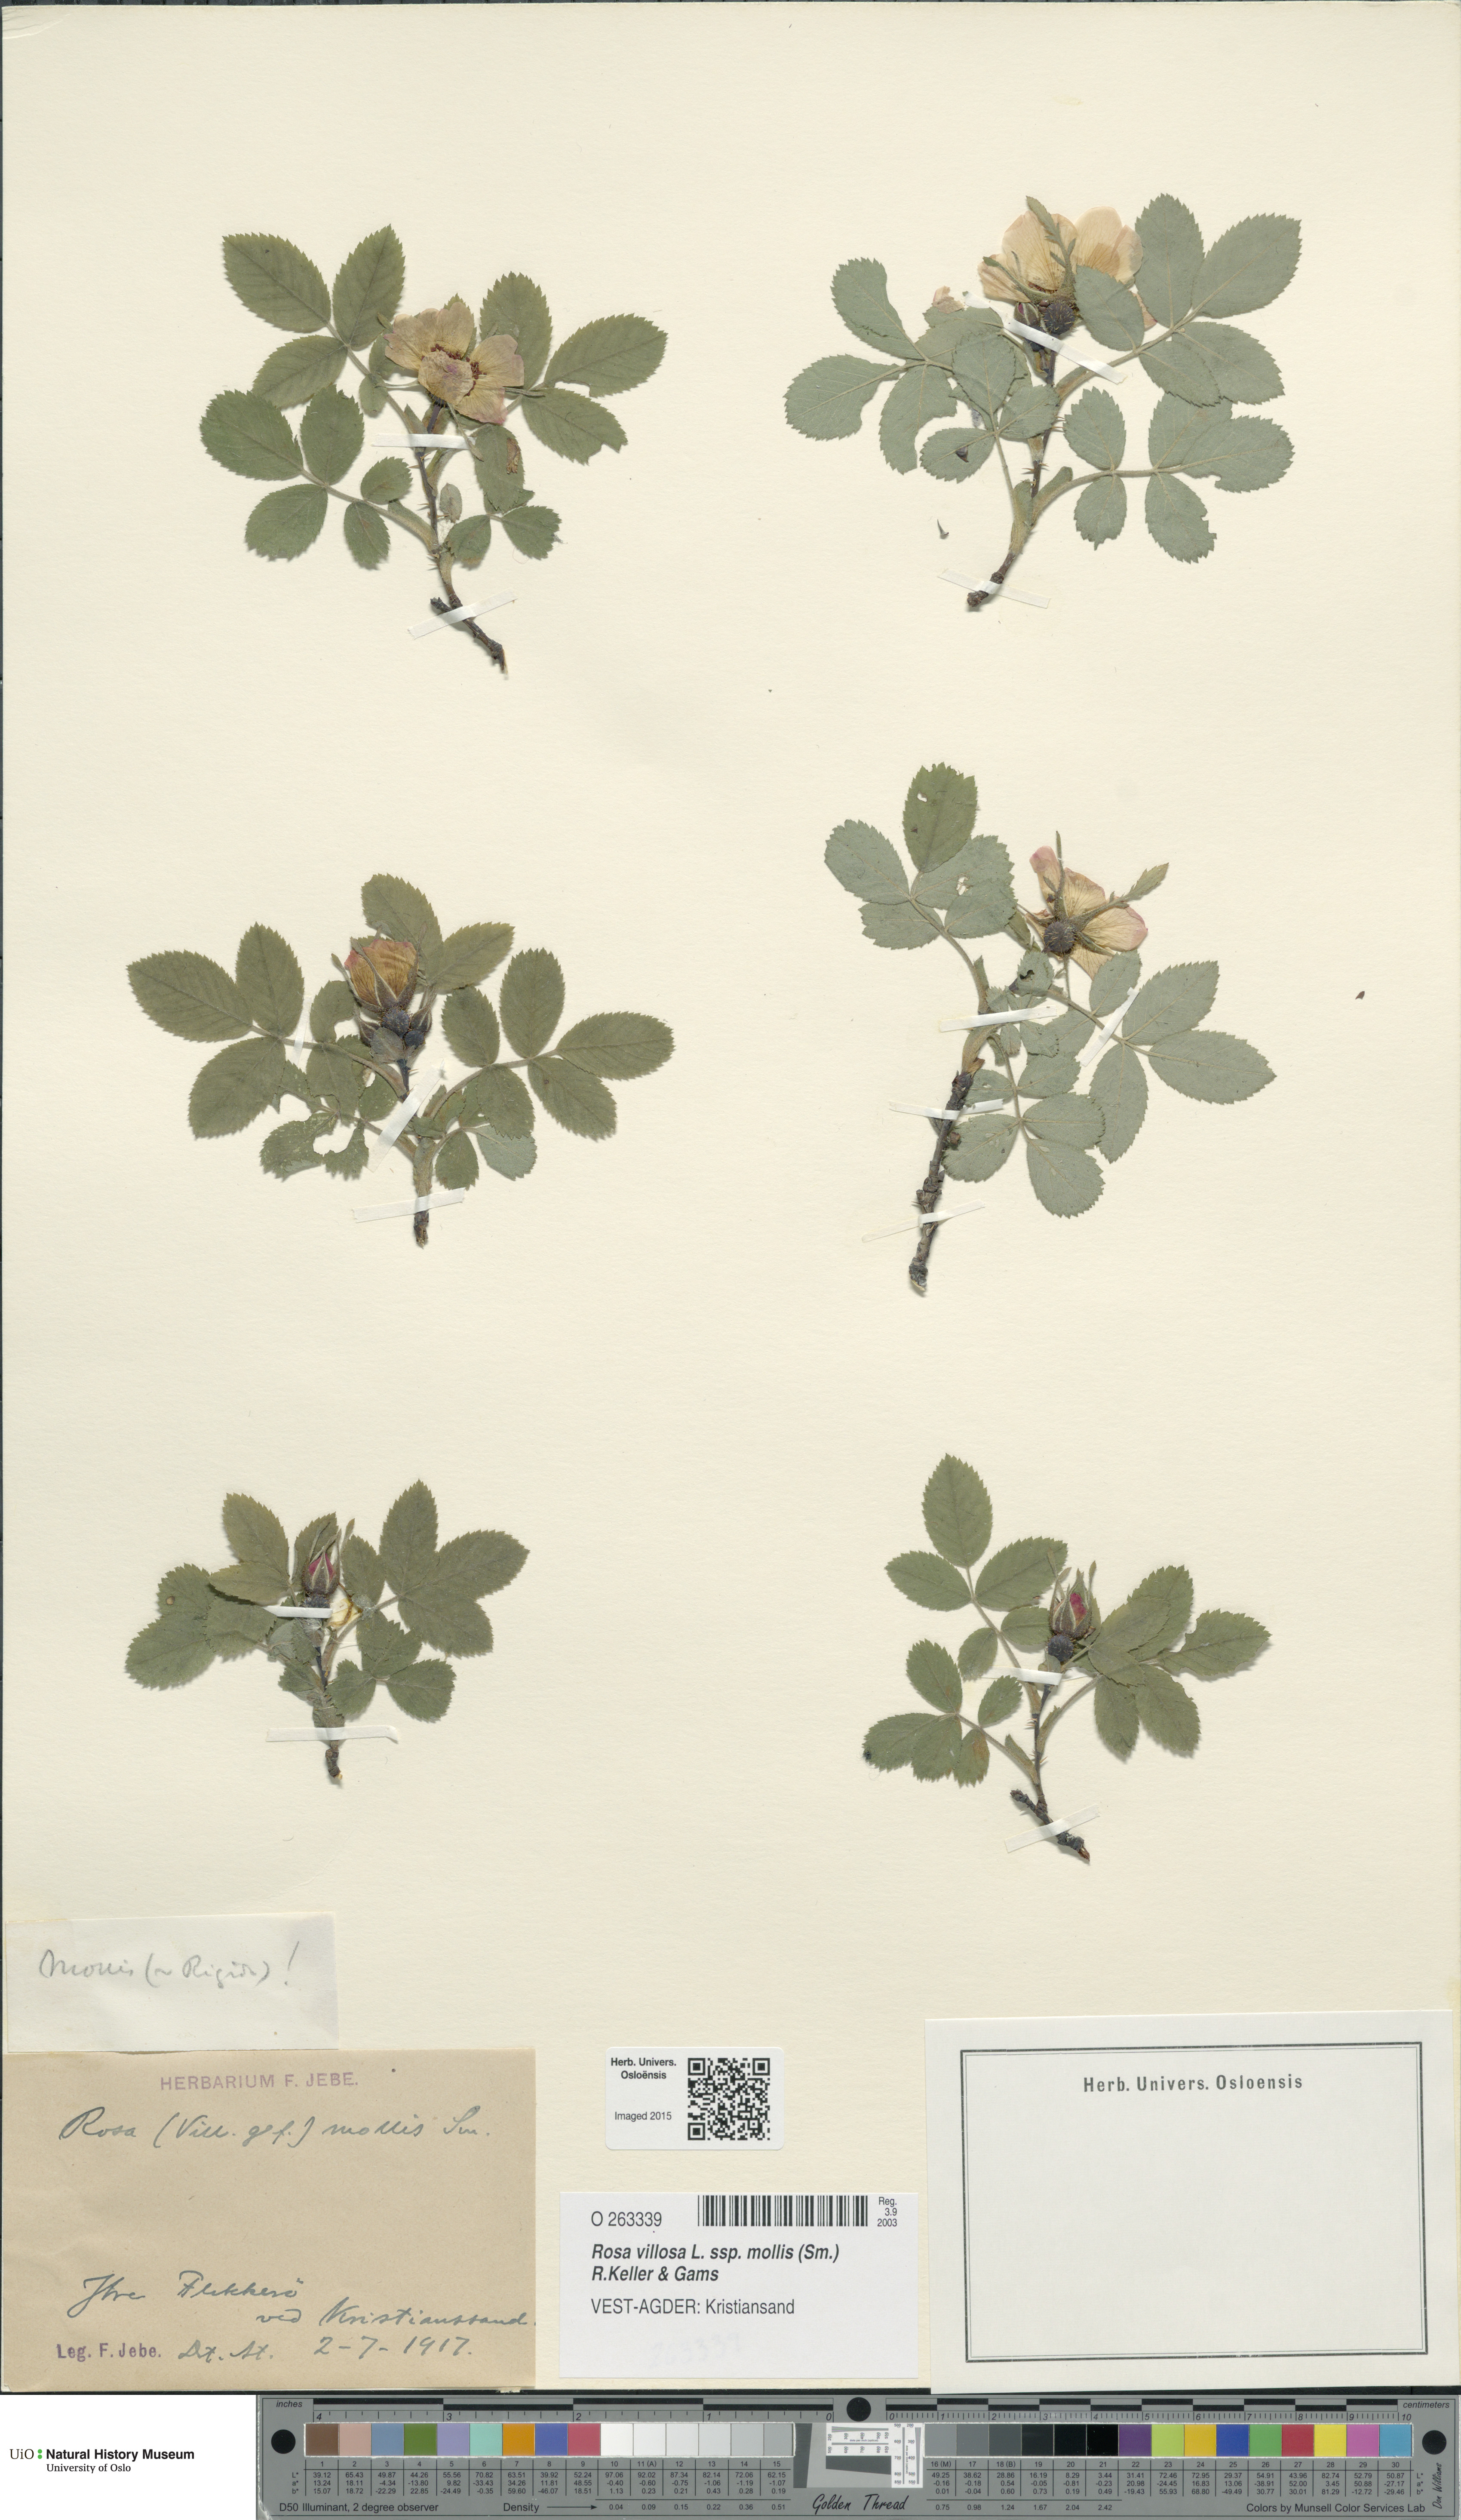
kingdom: Plantae
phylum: Tracheophyta
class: Magnoliopsida
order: Rosales
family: Rosaceae
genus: Rosa
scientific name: Rosa mollis
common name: Rose
